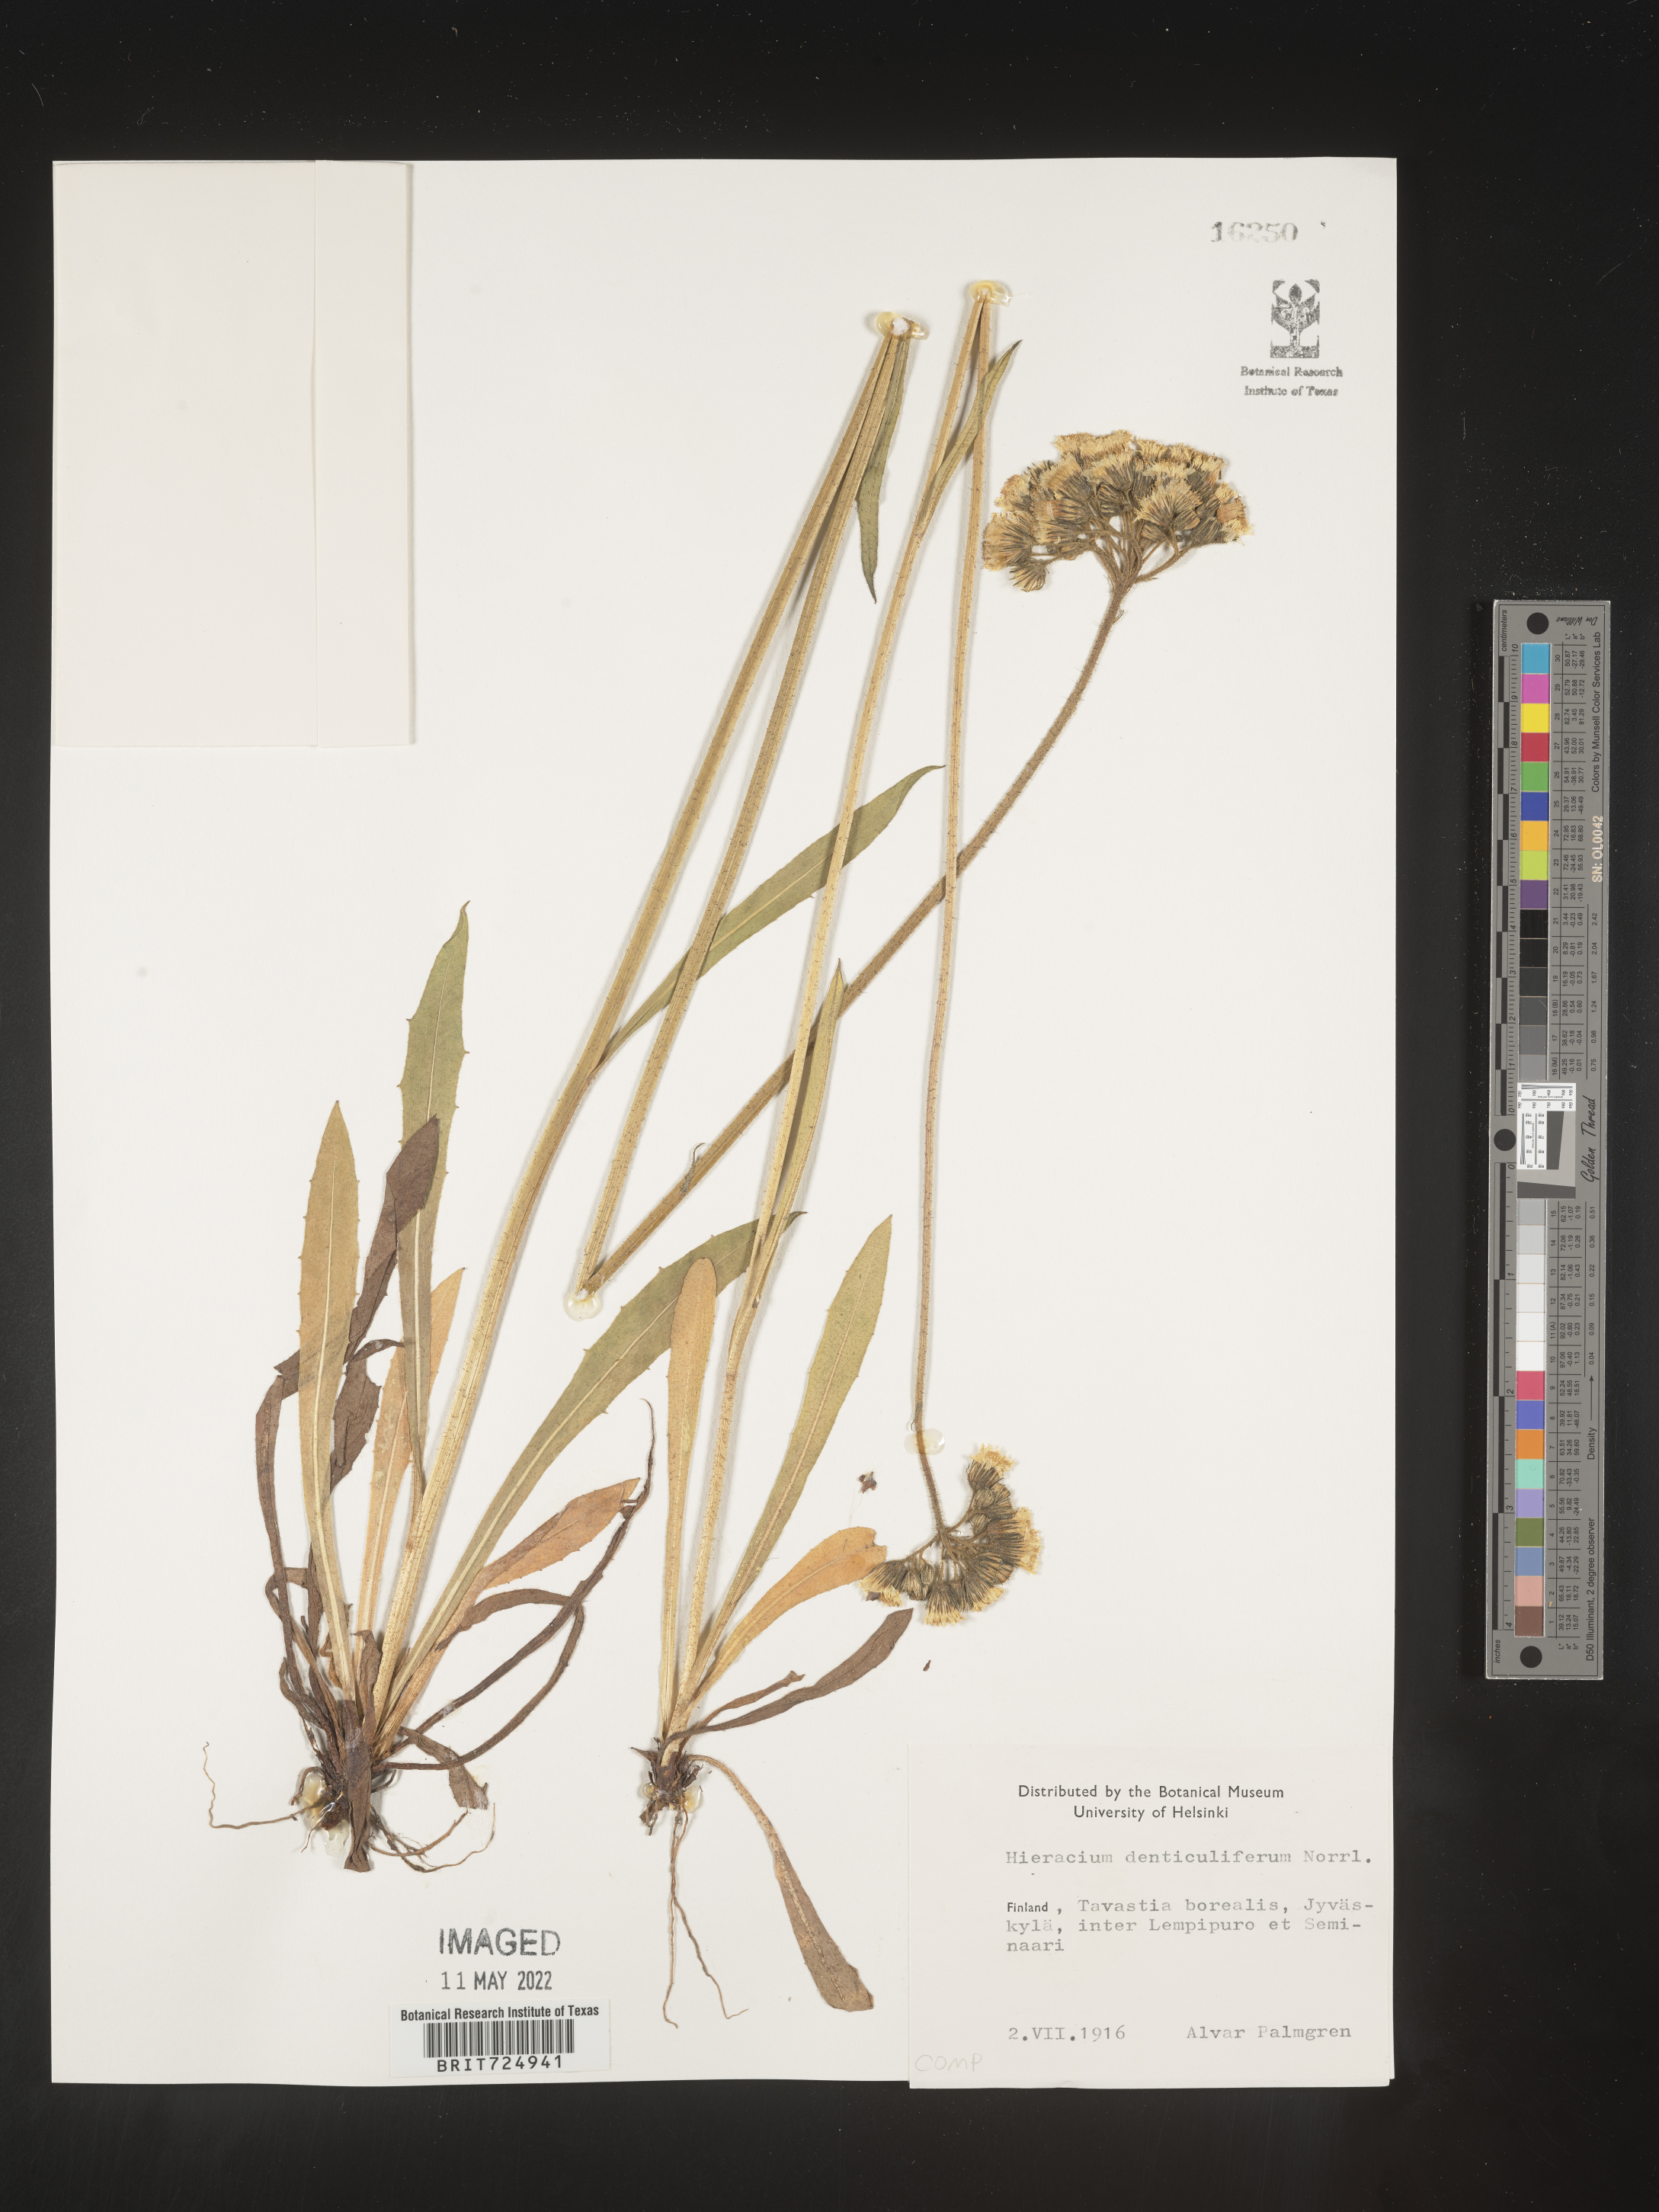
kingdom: Plantae
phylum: Tracheophyta
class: Magnoliopsida
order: Asterales
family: Asteraceae
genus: Hieracium
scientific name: Hieracium
